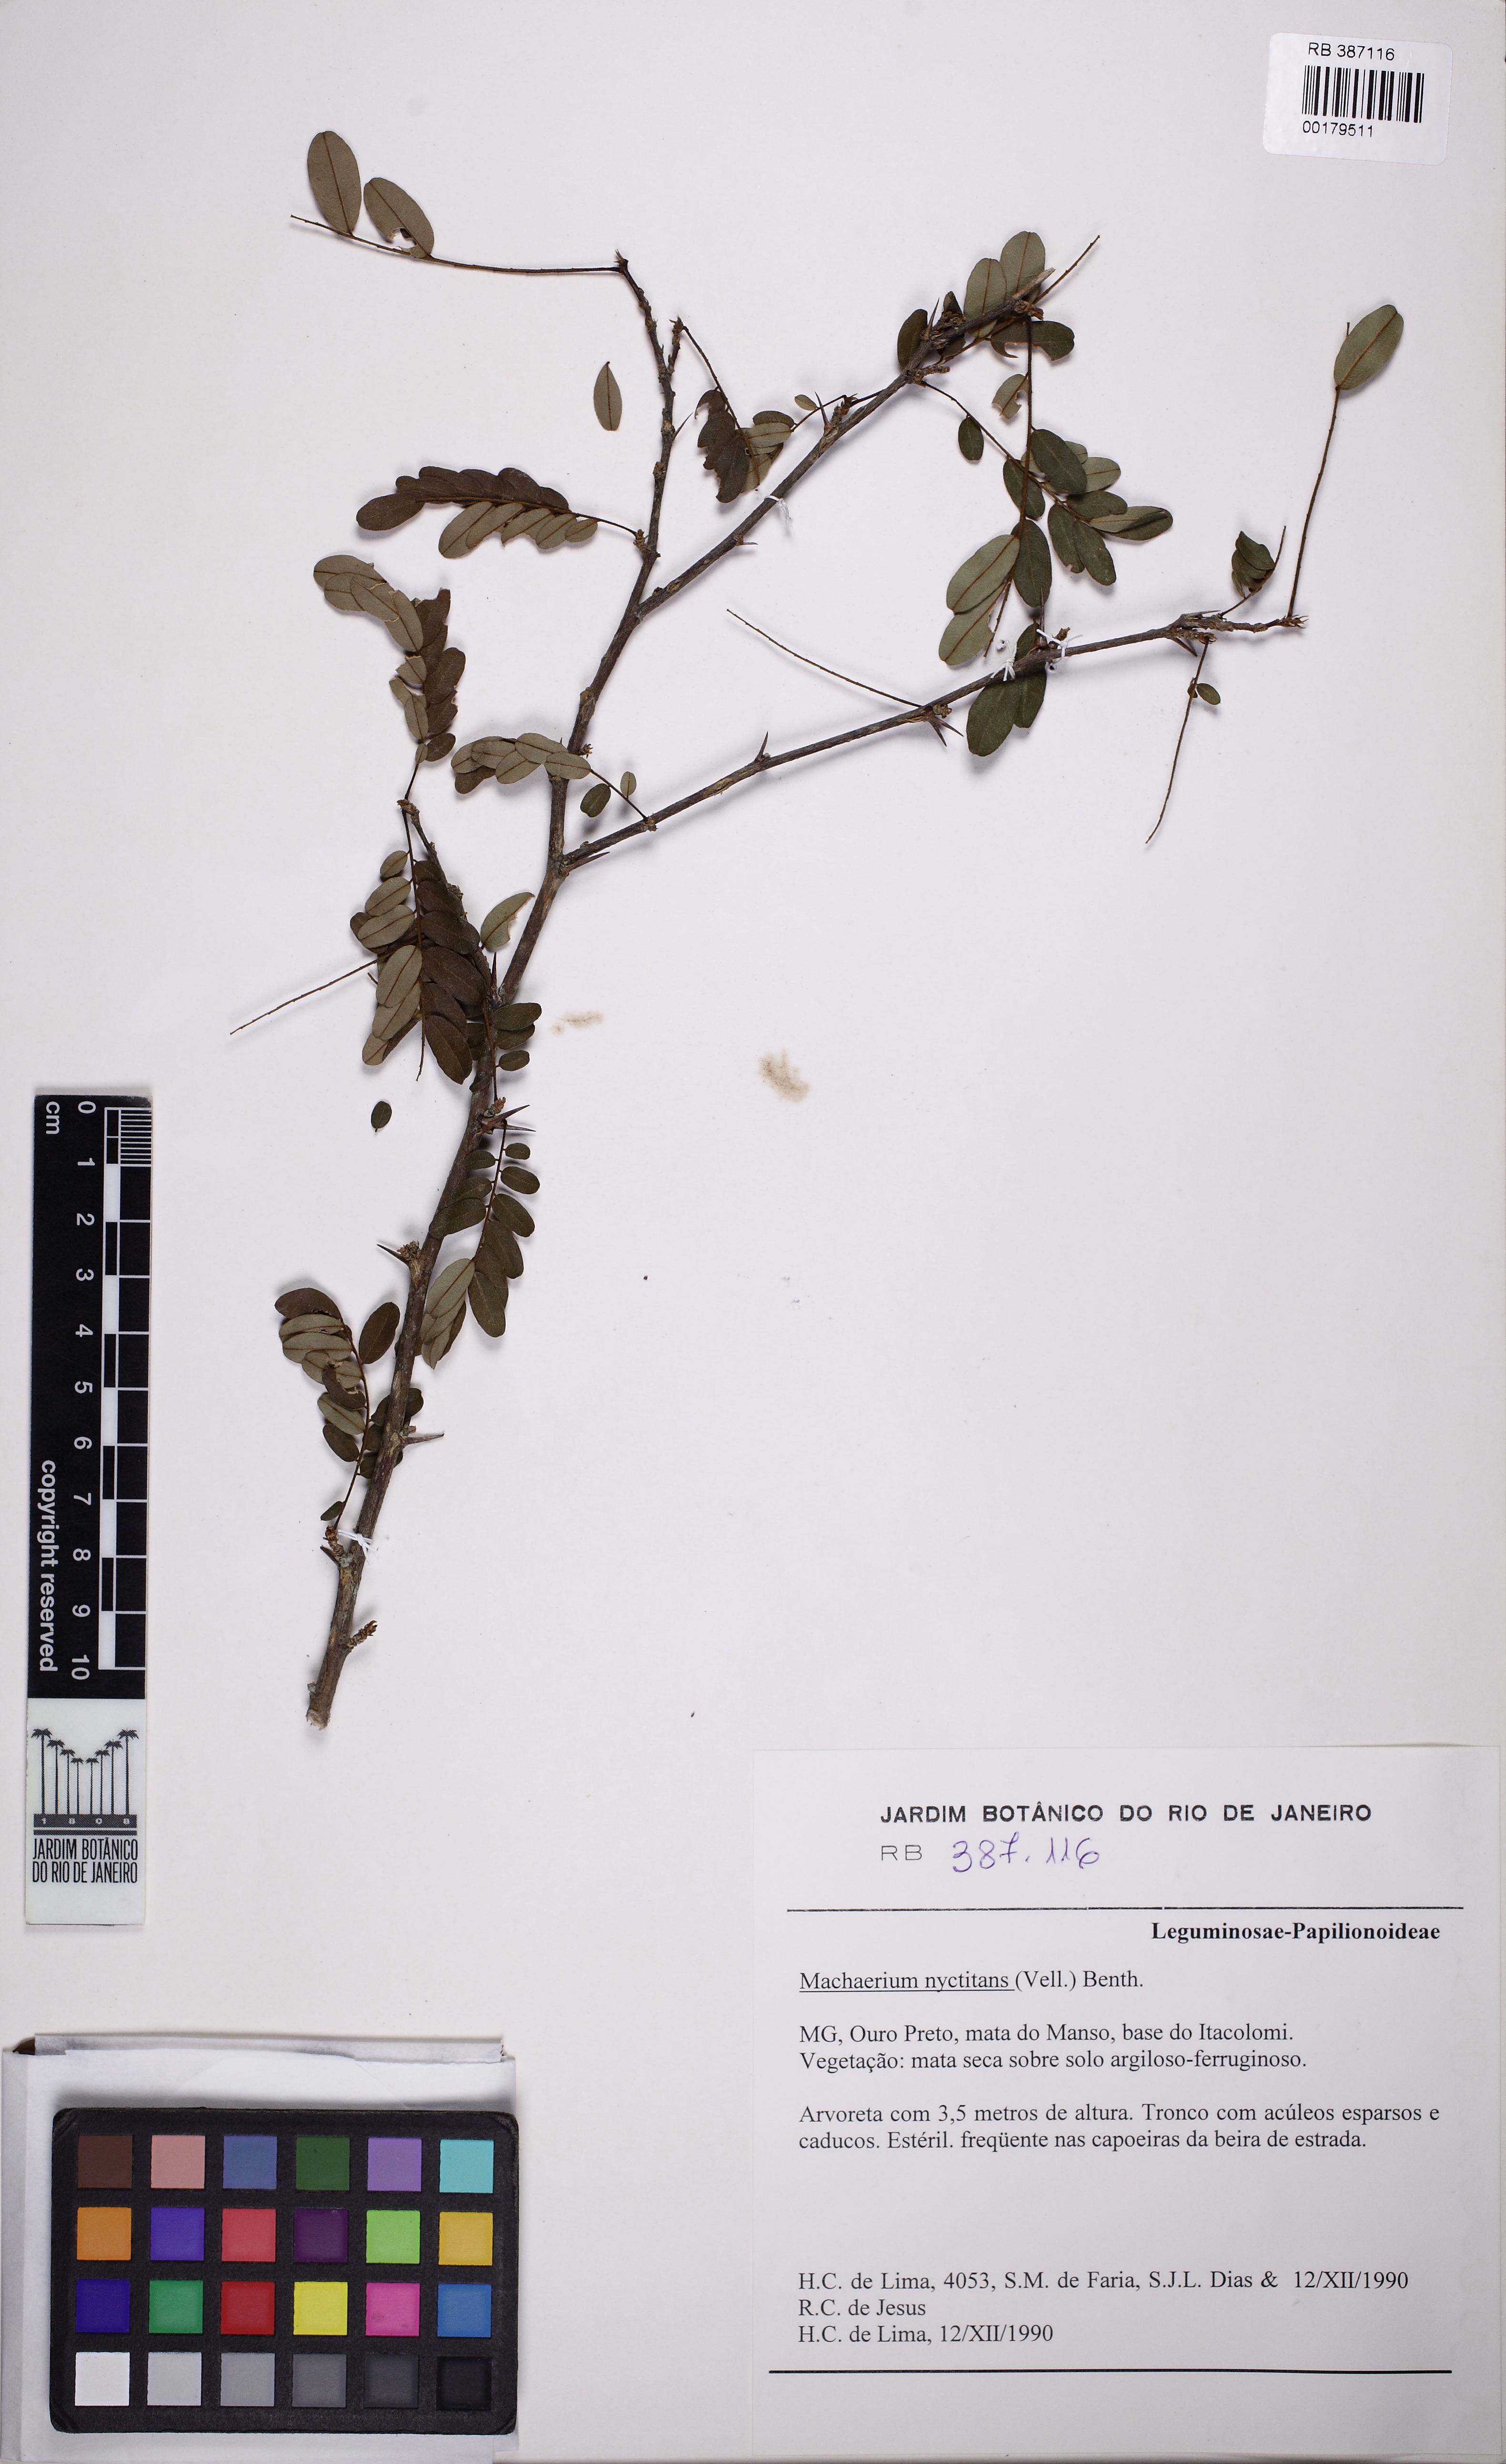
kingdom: Plantae
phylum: Tracheophyta
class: Magnoliopsida
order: Fabales
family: Fabaceae
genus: Machaerium
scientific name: Machaerium nyctitans
